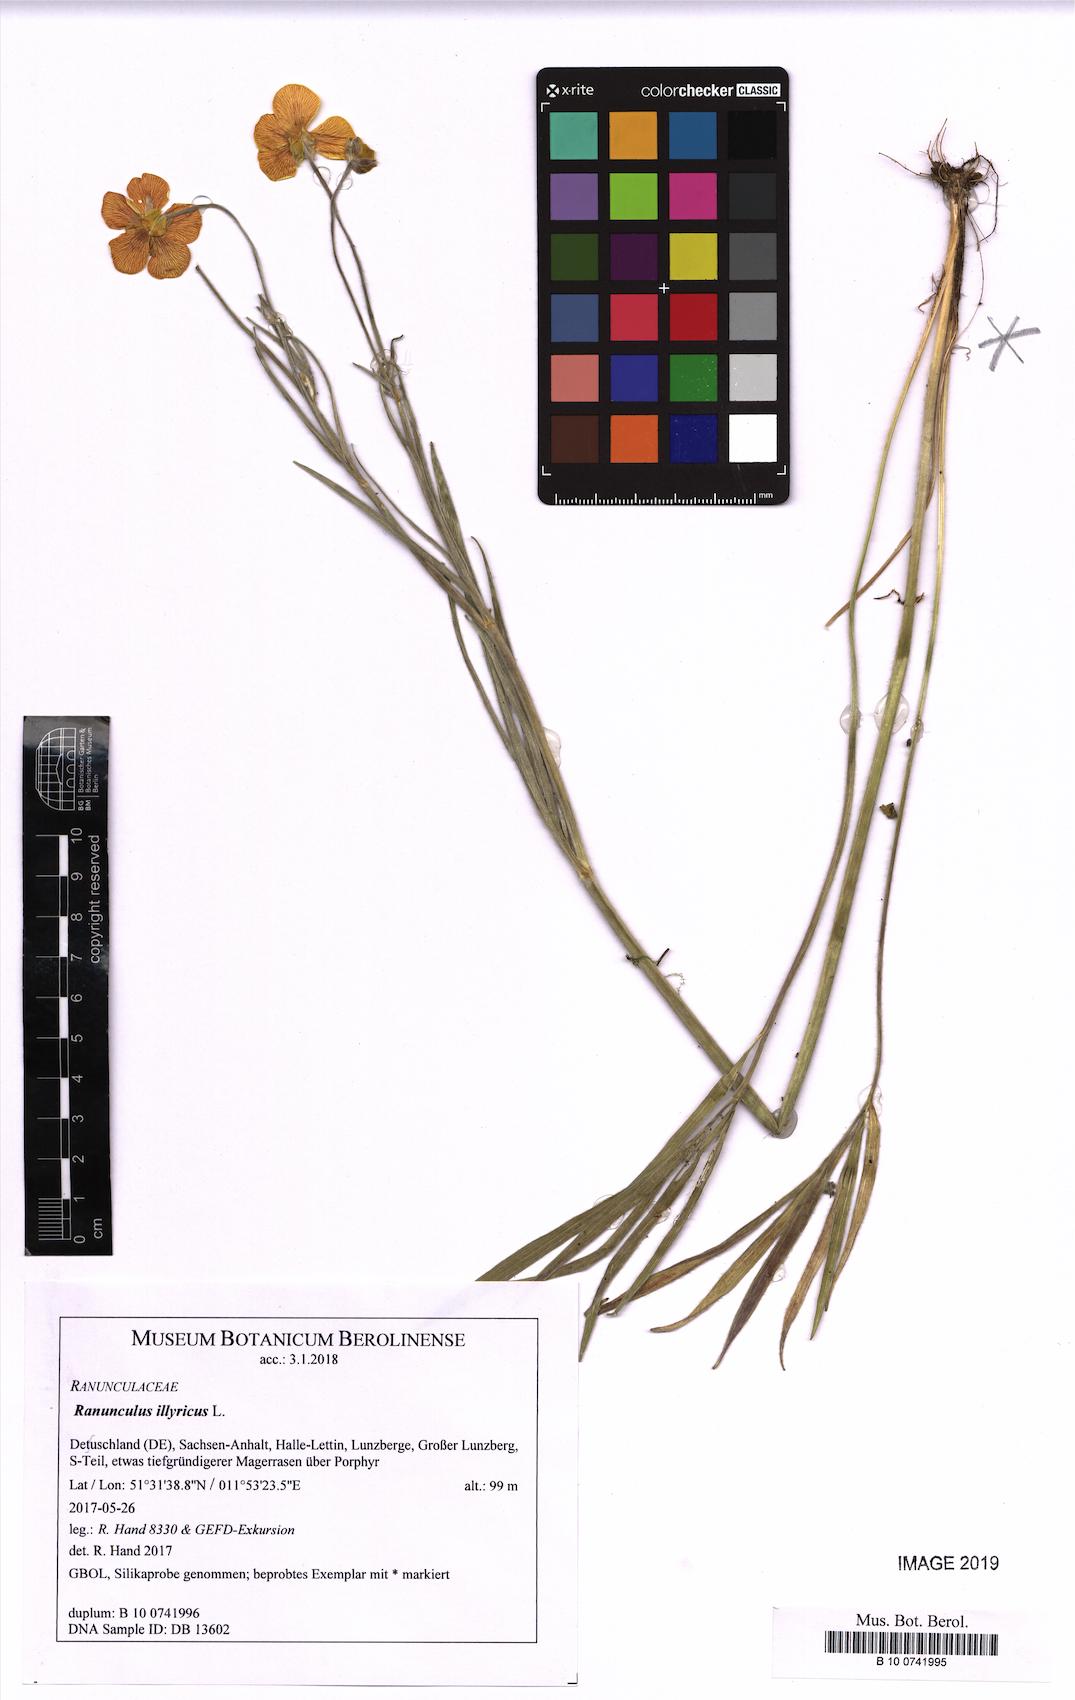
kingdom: Plantae
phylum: Tracheophyta
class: Magnoliopsida
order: Ranunculales
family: Ranunculaceae
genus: Ranunculus
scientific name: Ranunculus illyricus
